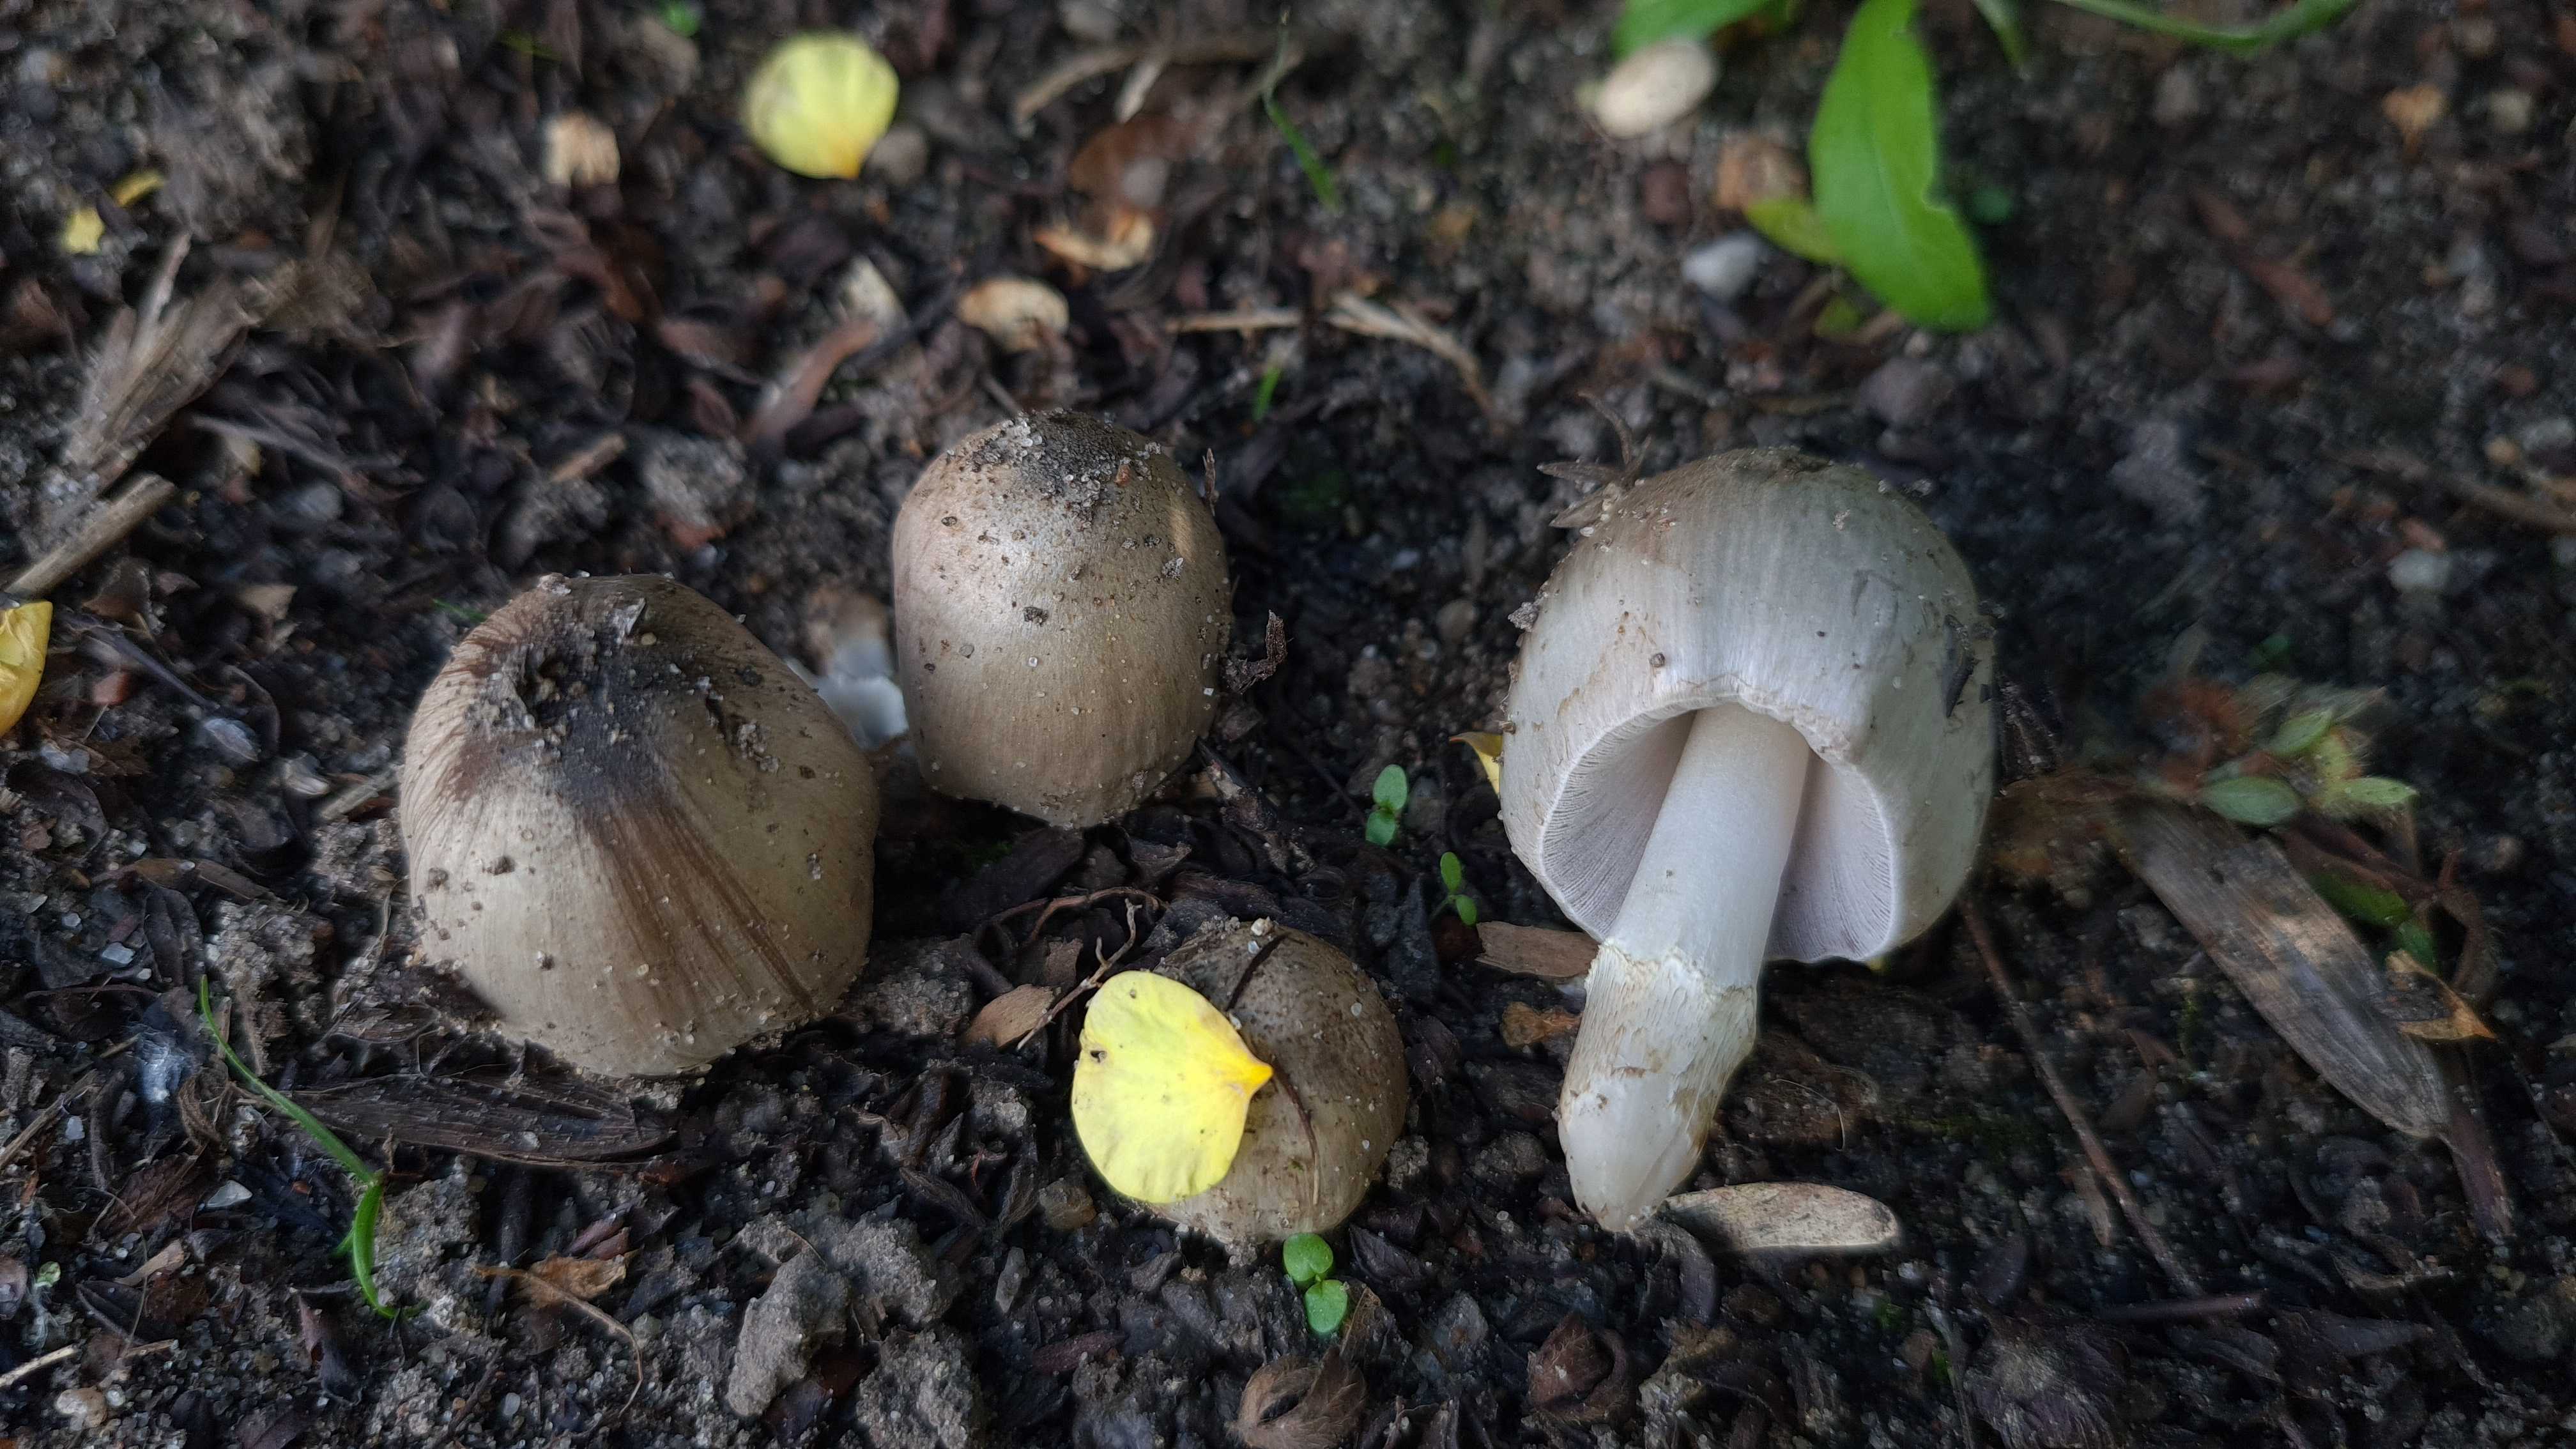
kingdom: Fungi
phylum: Basidiomycota
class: Agaricomycetes
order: Agaricales
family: Psathyrellaceae
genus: Coprinopsis
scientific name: Coprinopsis
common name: blækhat
